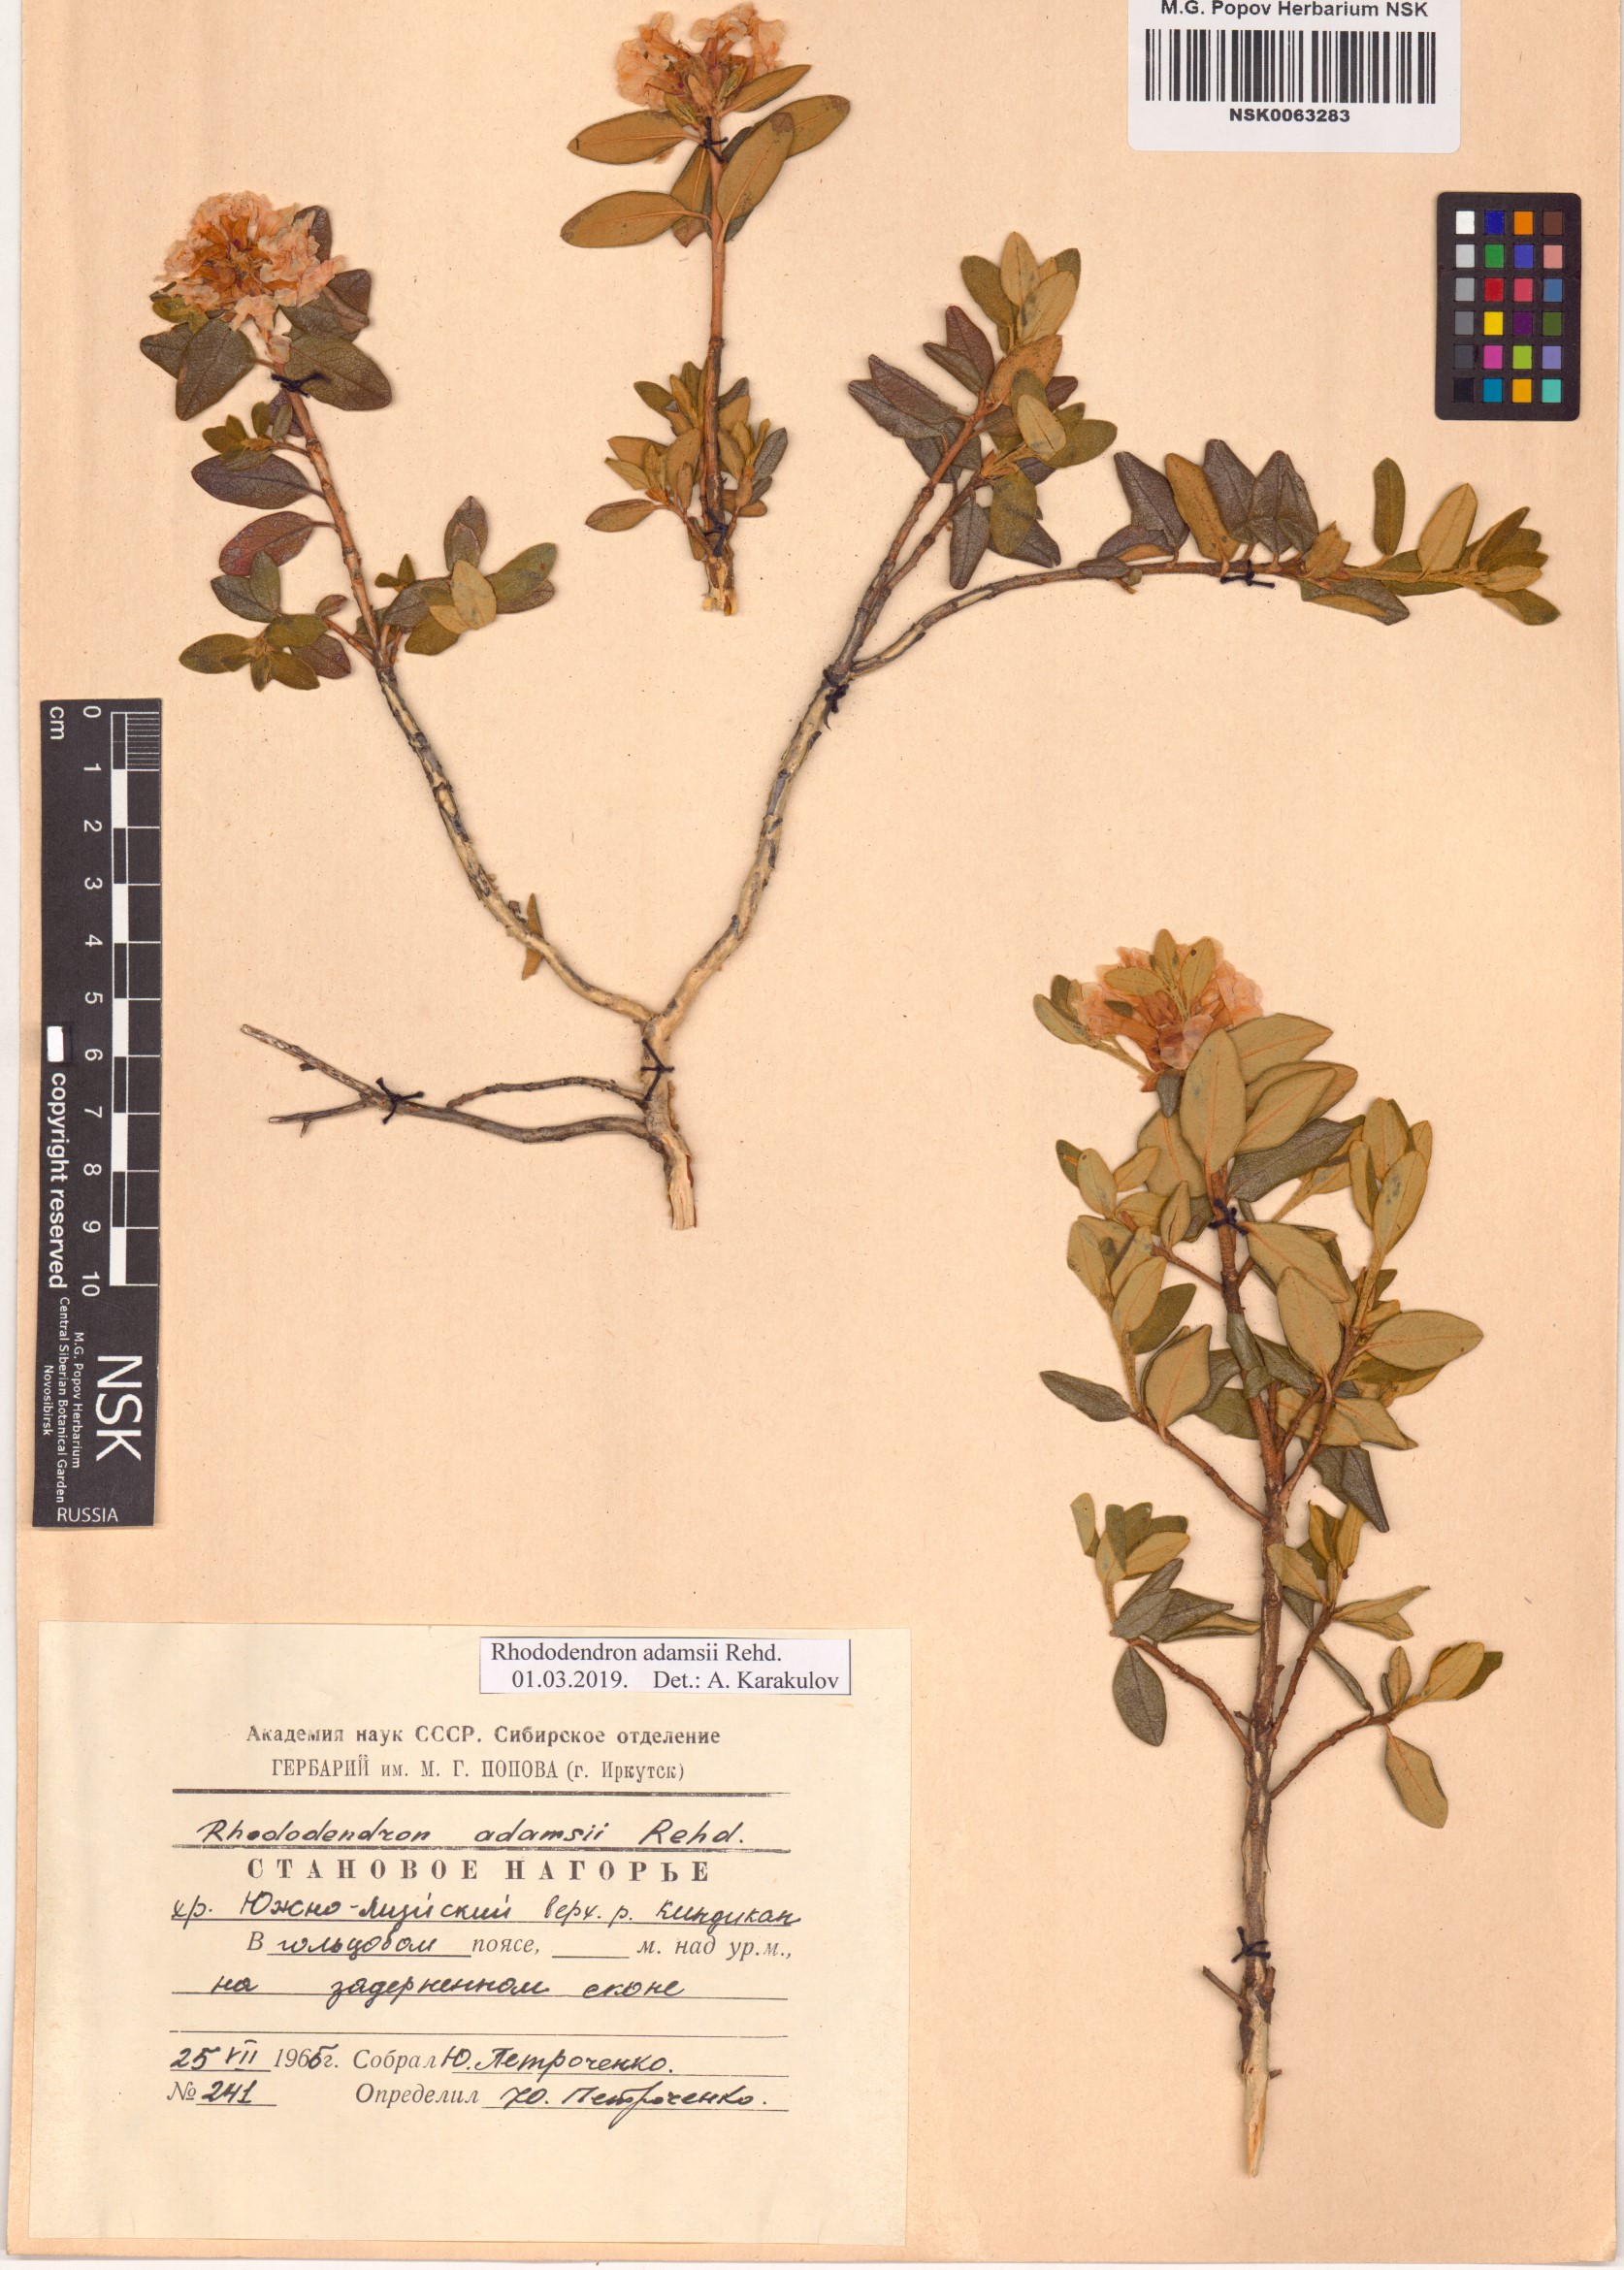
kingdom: Plantae
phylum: Tracheophyta
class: Magnoliopsida
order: Ericales
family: Ericaceae
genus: Rhododendron
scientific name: Rhododendron adamsii
